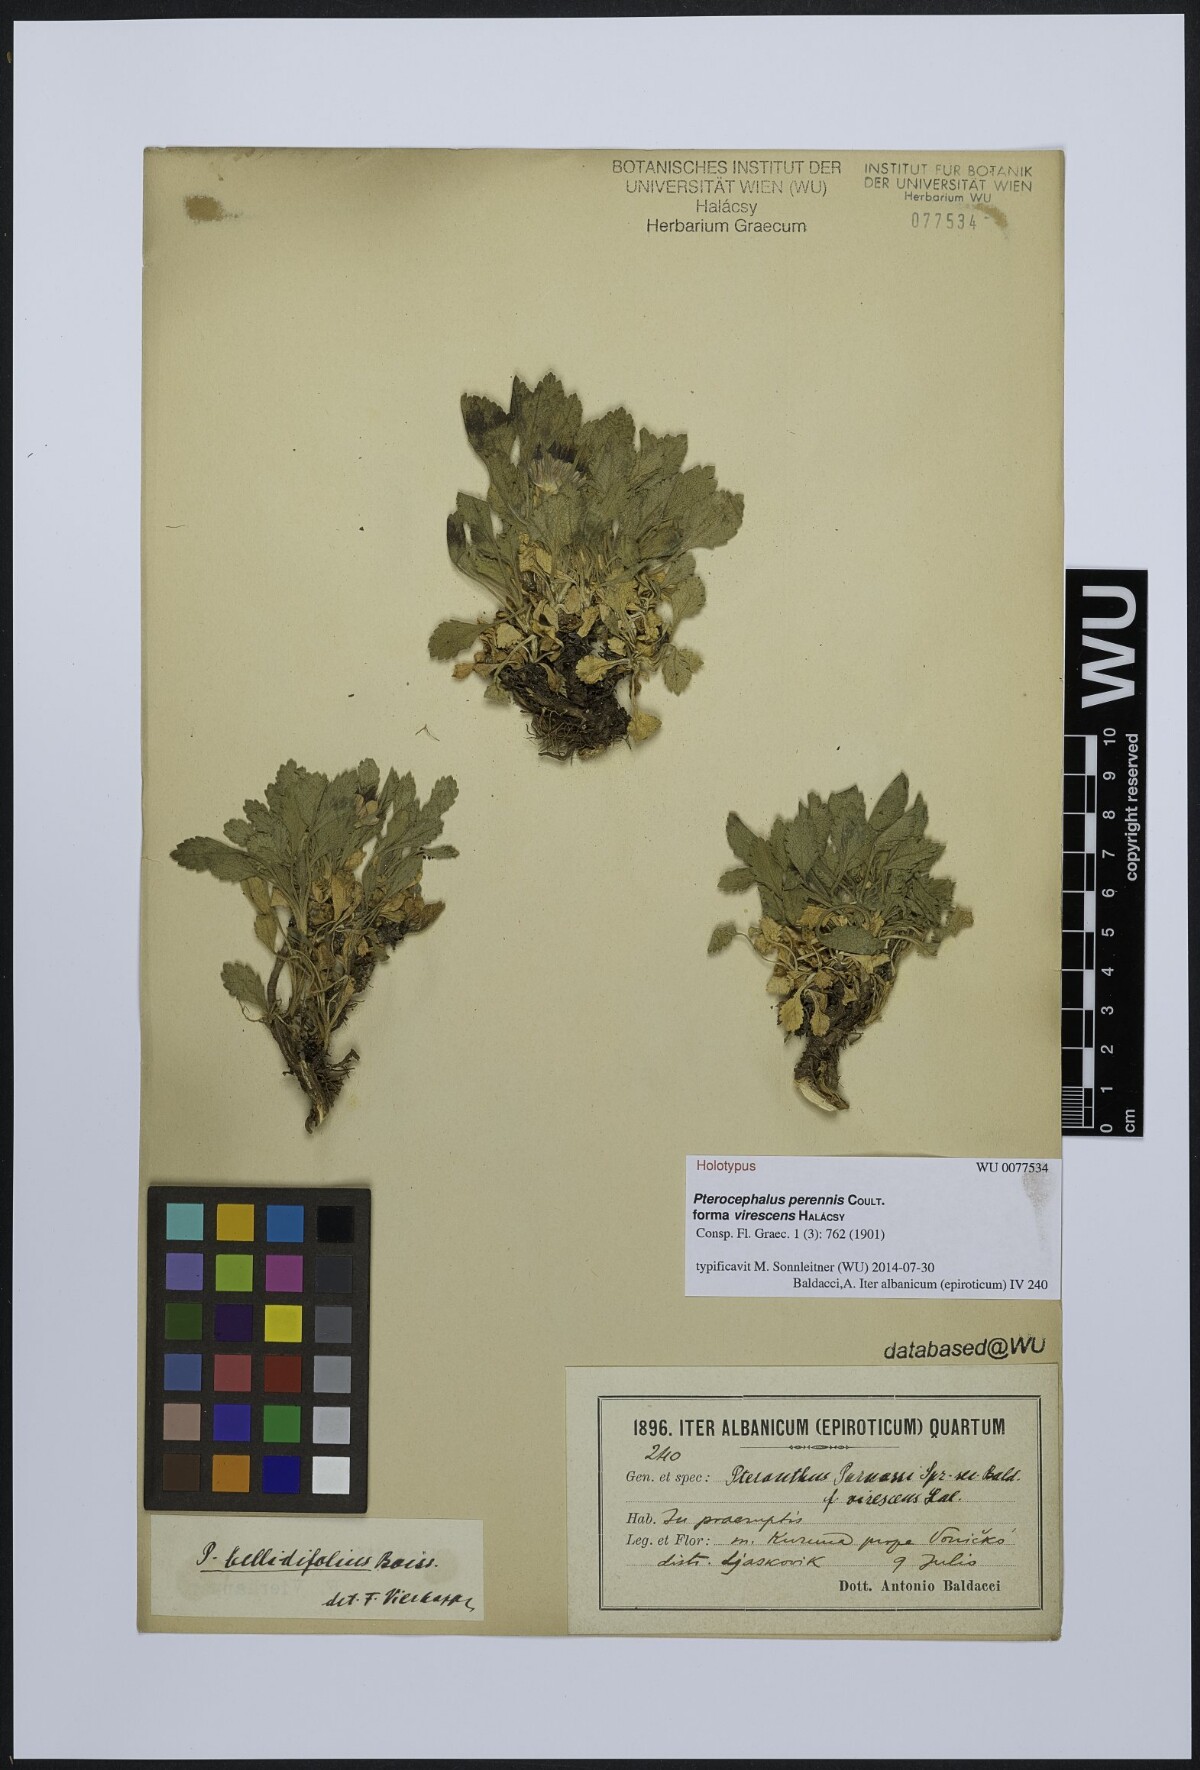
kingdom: Plantae
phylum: Tracheophyta
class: Magnoliopsida
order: Dipsacales
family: Caprifoliaceae
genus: Pterocephalus
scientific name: Pterocephalus perennis
